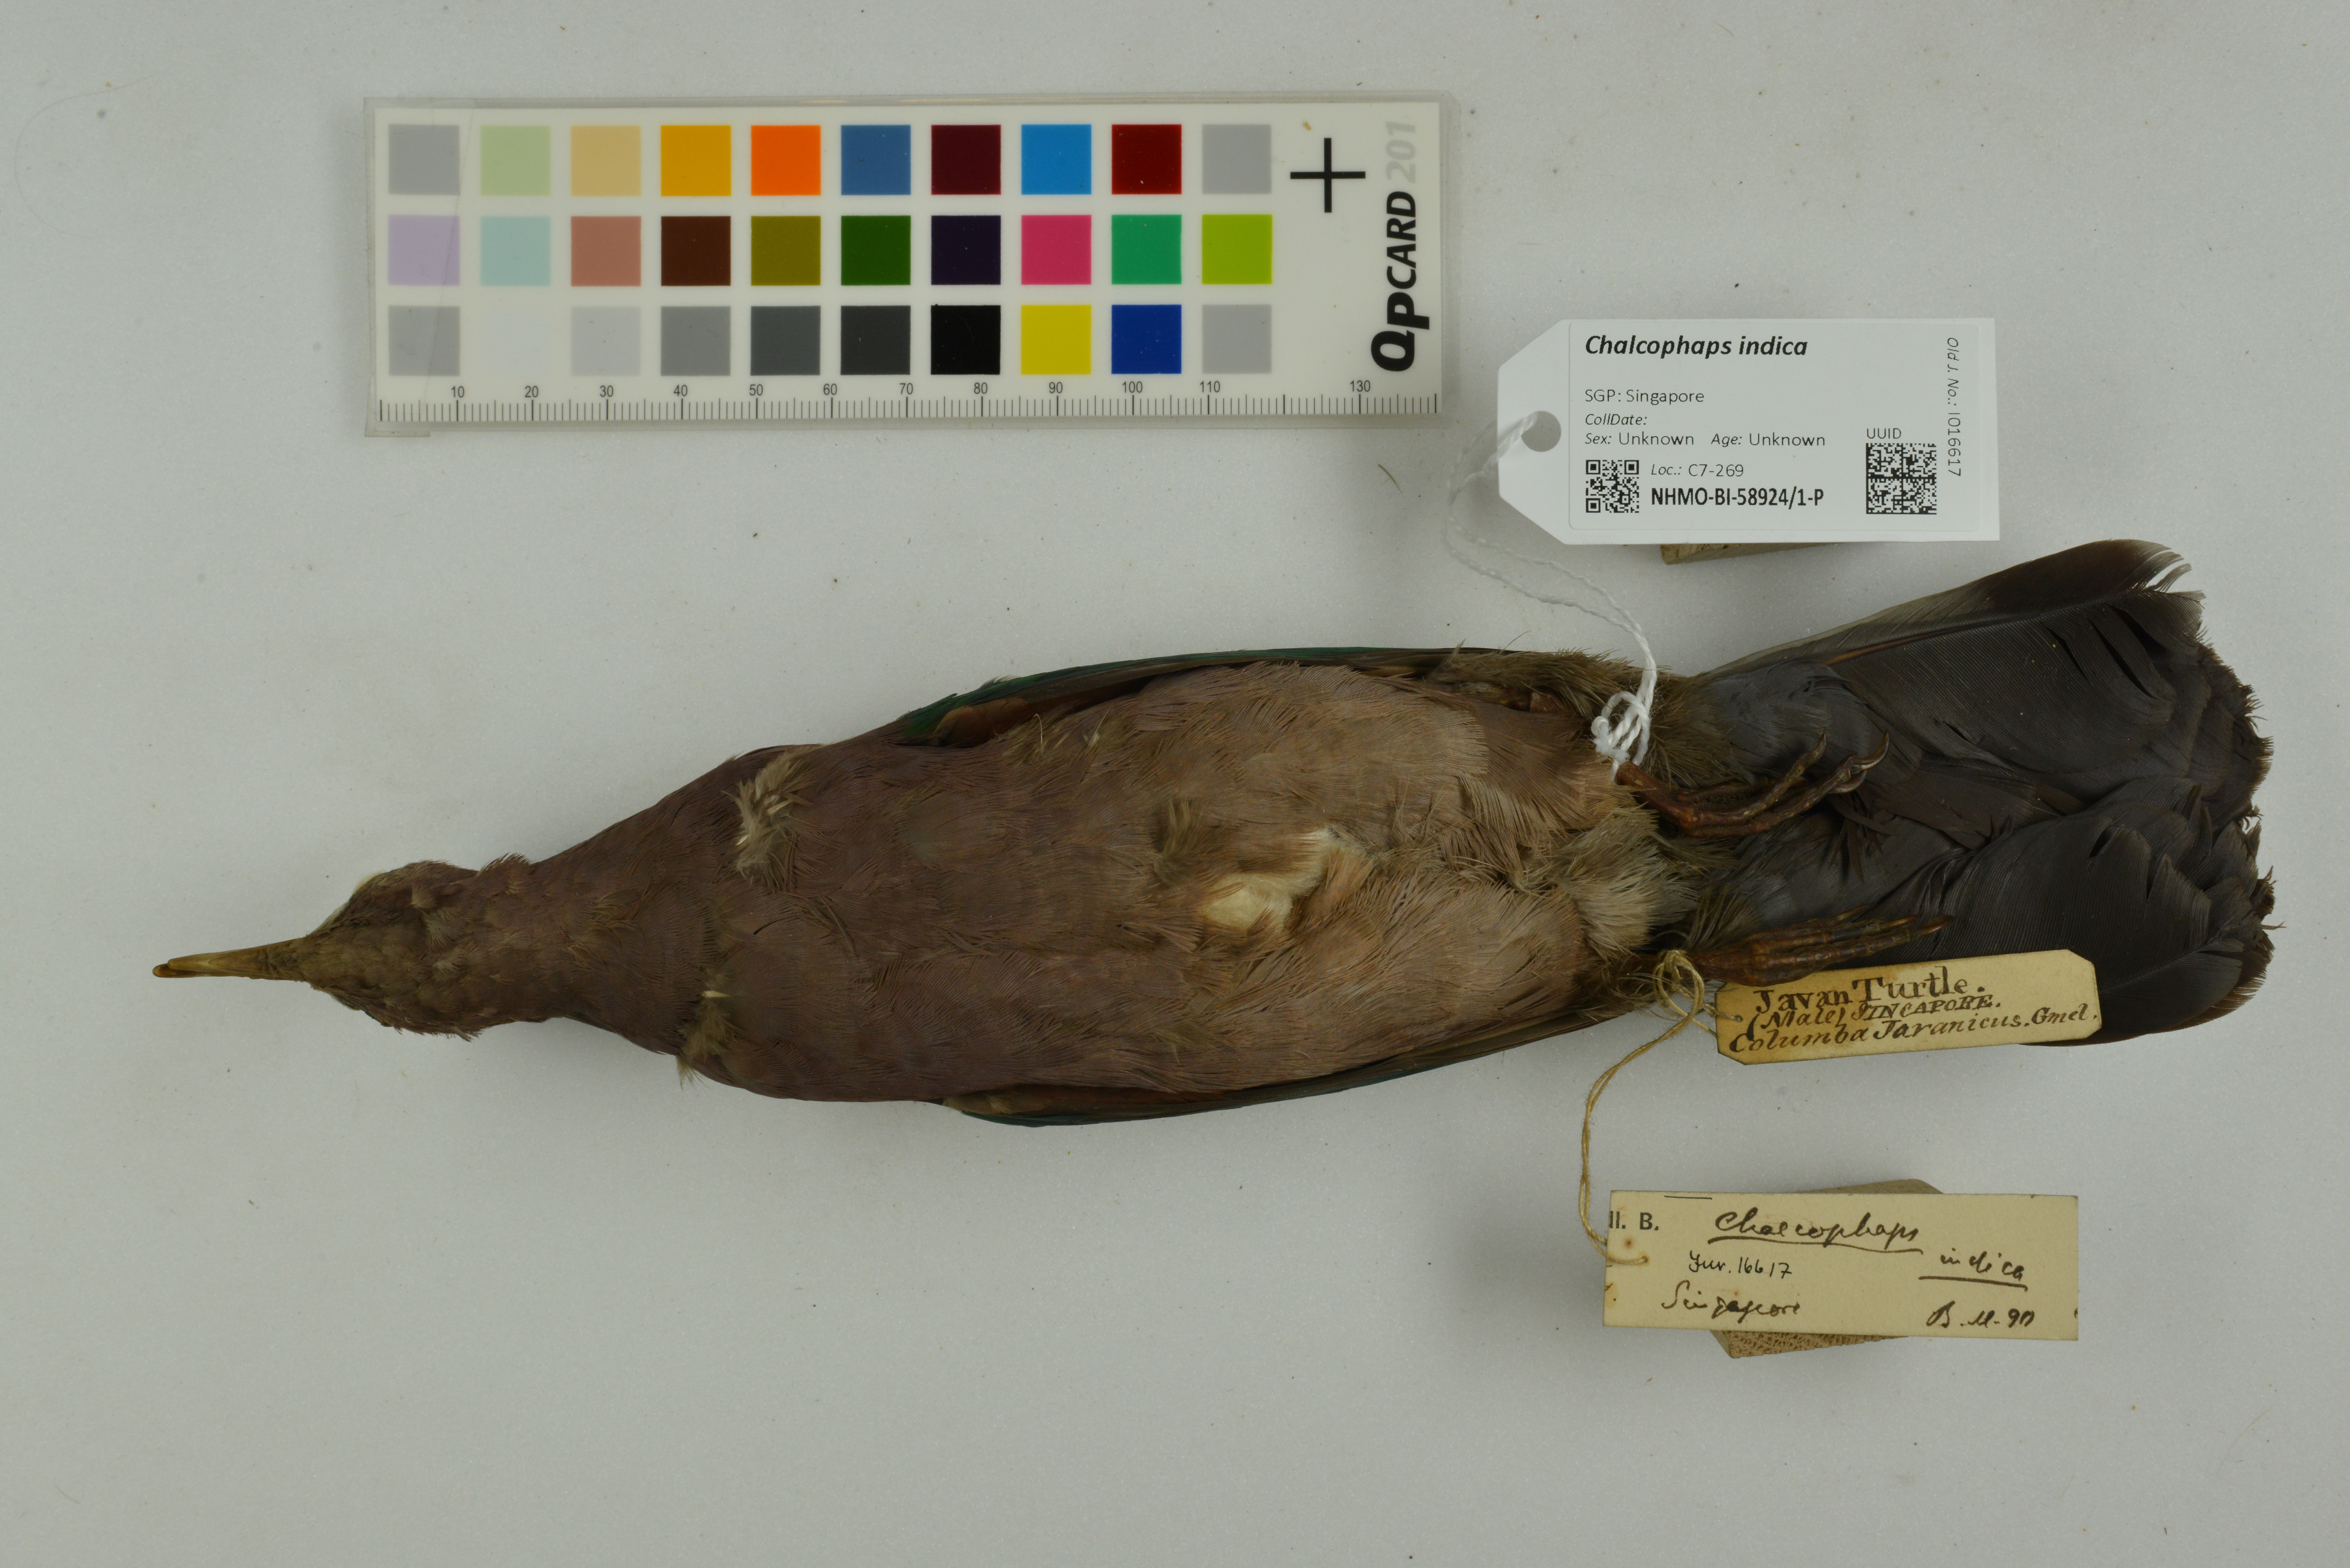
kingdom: Animalia
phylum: Chordata
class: Aves
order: Columbiformes
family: Columbidae
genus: Chalcophaps
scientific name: Chalcophaps indica
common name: Common emerald dove
